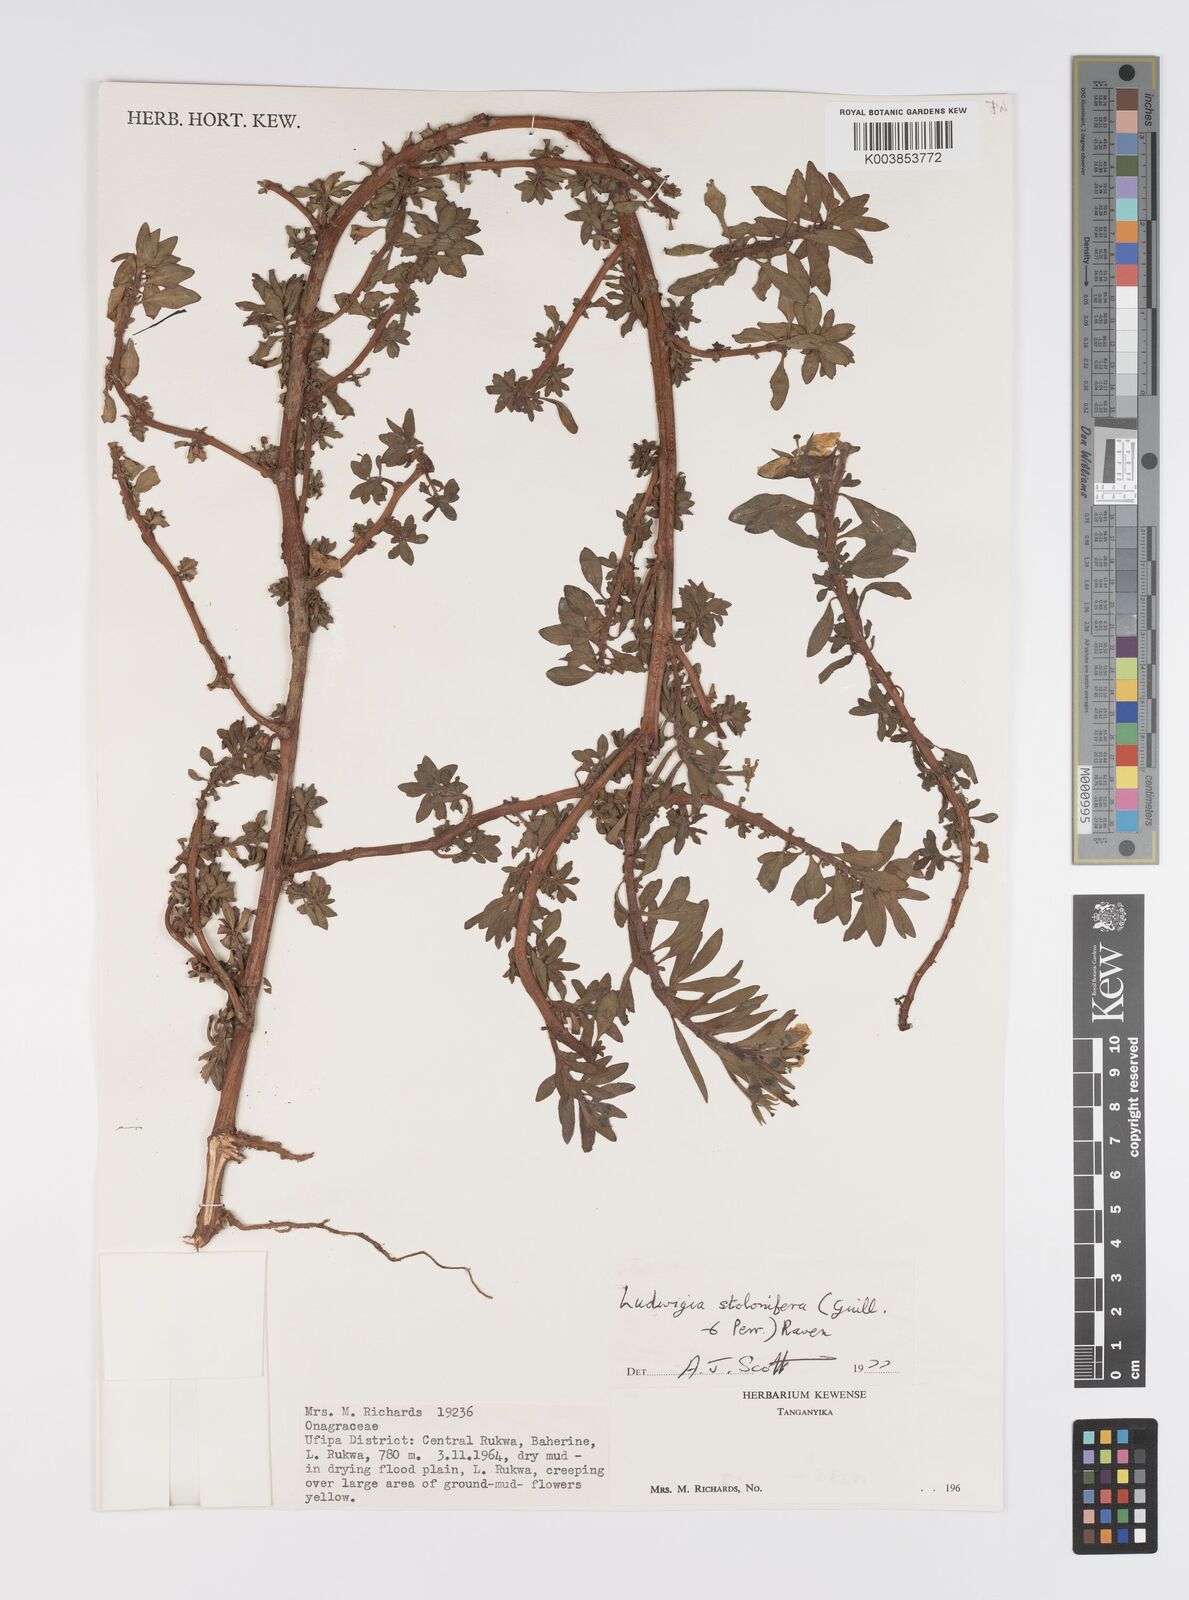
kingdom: Plantae
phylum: Tracheophyta
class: Magnoliopsida
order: Myrtales
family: Onagraceae
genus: Ludwigia
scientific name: Ludwigia repens
